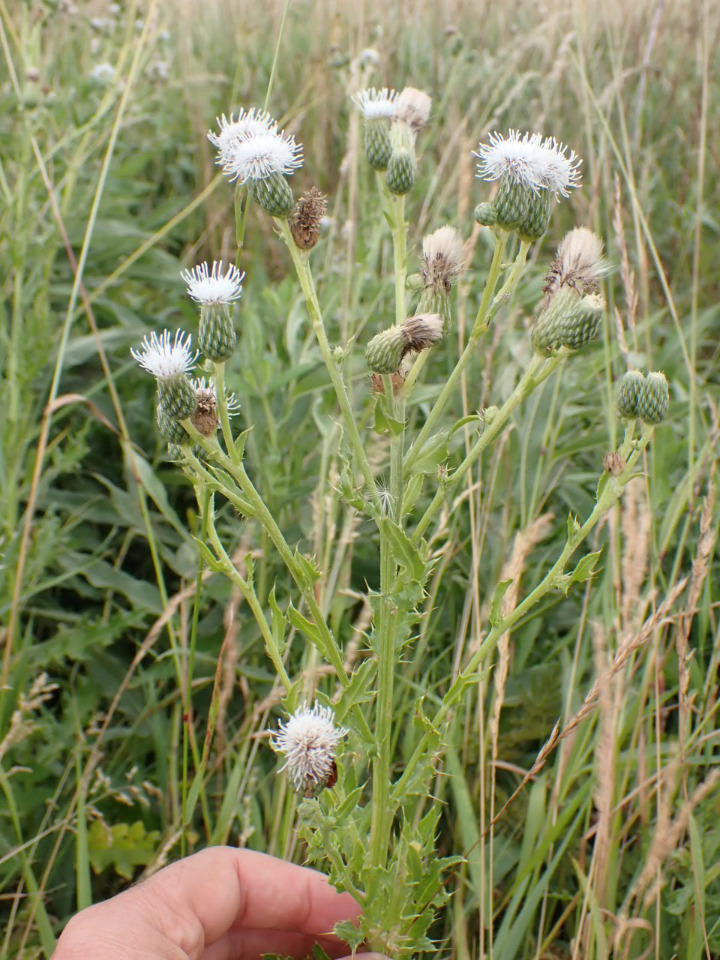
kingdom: Plantae
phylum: Tracheophyta
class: Magnoliopsida
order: Asterales
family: Asteraceae
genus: Cirsium
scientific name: Cirsium arvense
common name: Ager-tidsel
